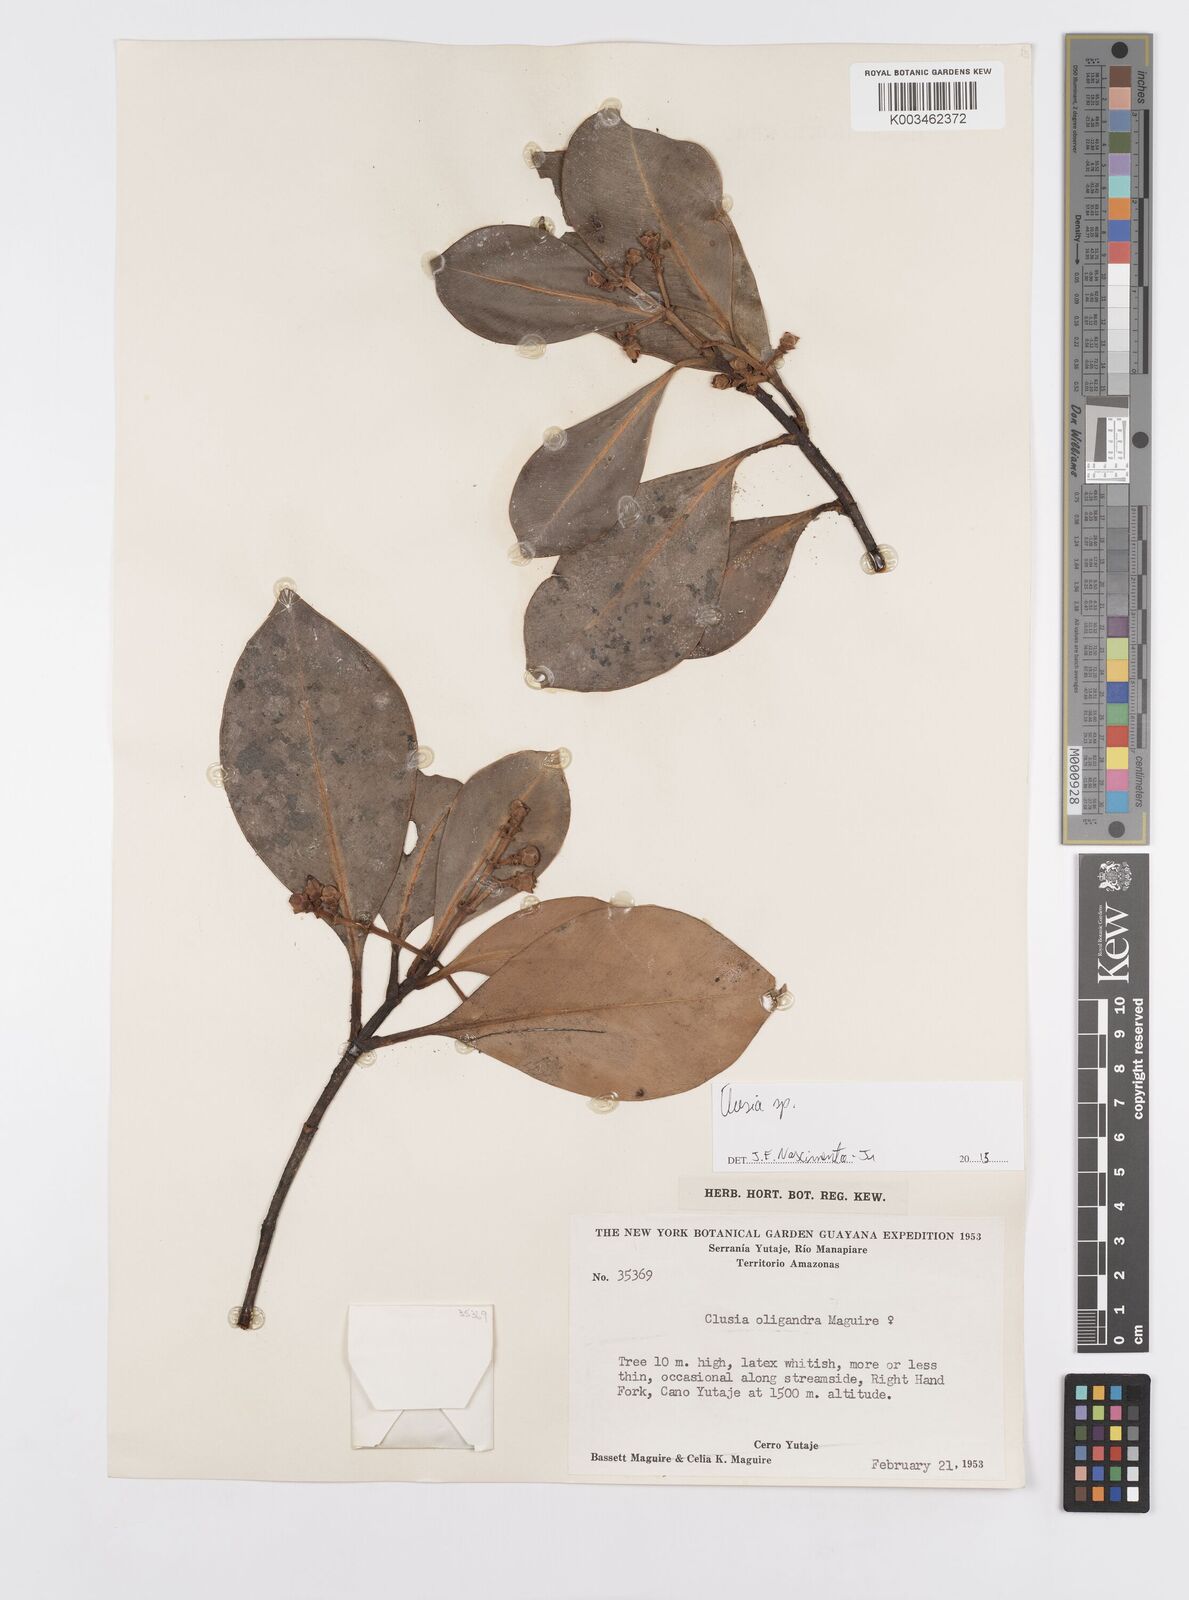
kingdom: Plantae
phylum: Tracheophyta
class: Magnoliopsida
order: Malpighiales
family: Clusiaceae
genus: Clusia
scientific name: Clusia
